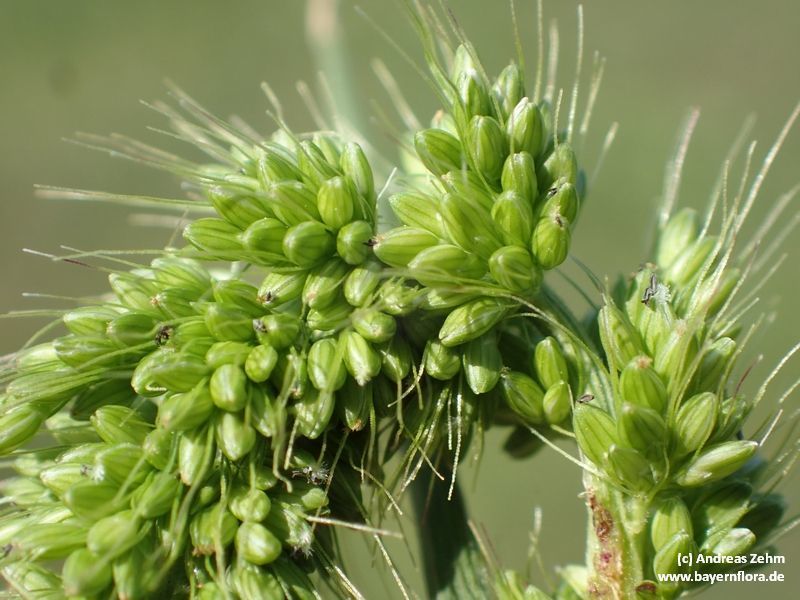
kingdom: Plantae
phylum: Tracheophyta
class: Liliopsida
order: Poales
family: Poaceae
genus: Setaria
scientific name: Setaria viridis
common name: Green bristlegrass
